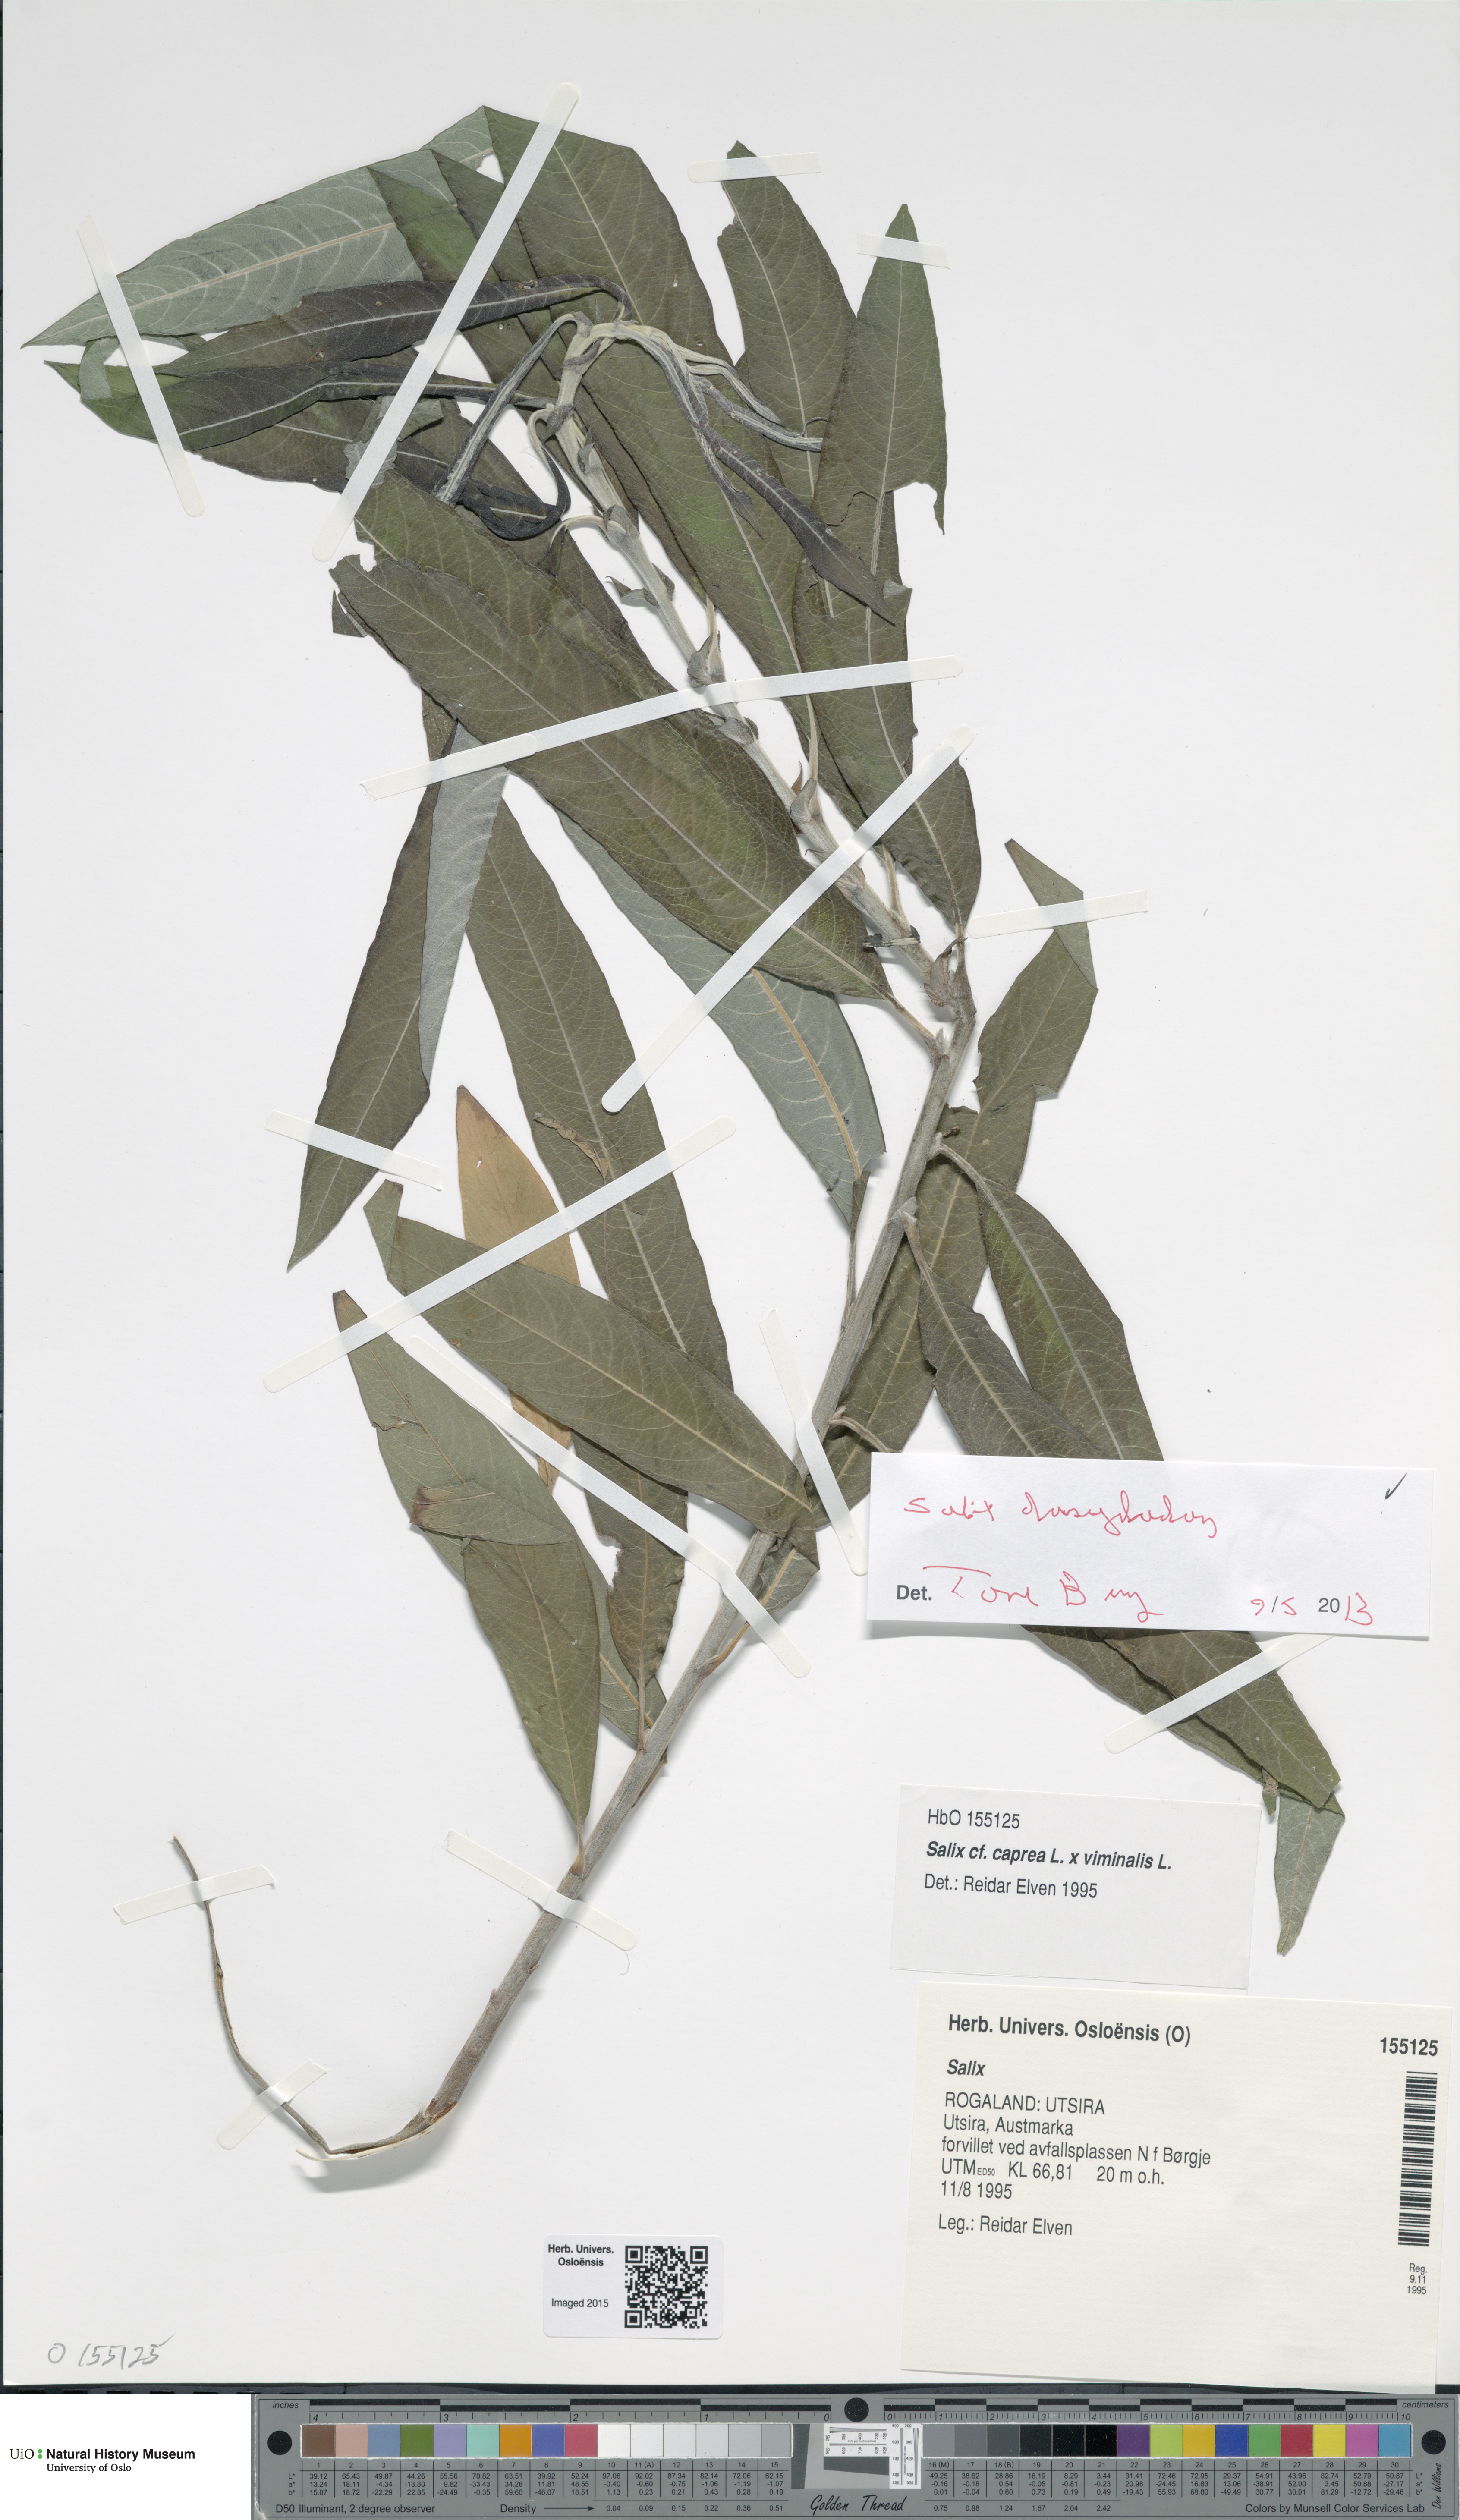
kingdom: Plantae
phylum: Tracheophyta
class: Magnoliopsida
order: Malpighiales
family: Salicaceae
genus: Salix
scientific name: Salix gmelinii
